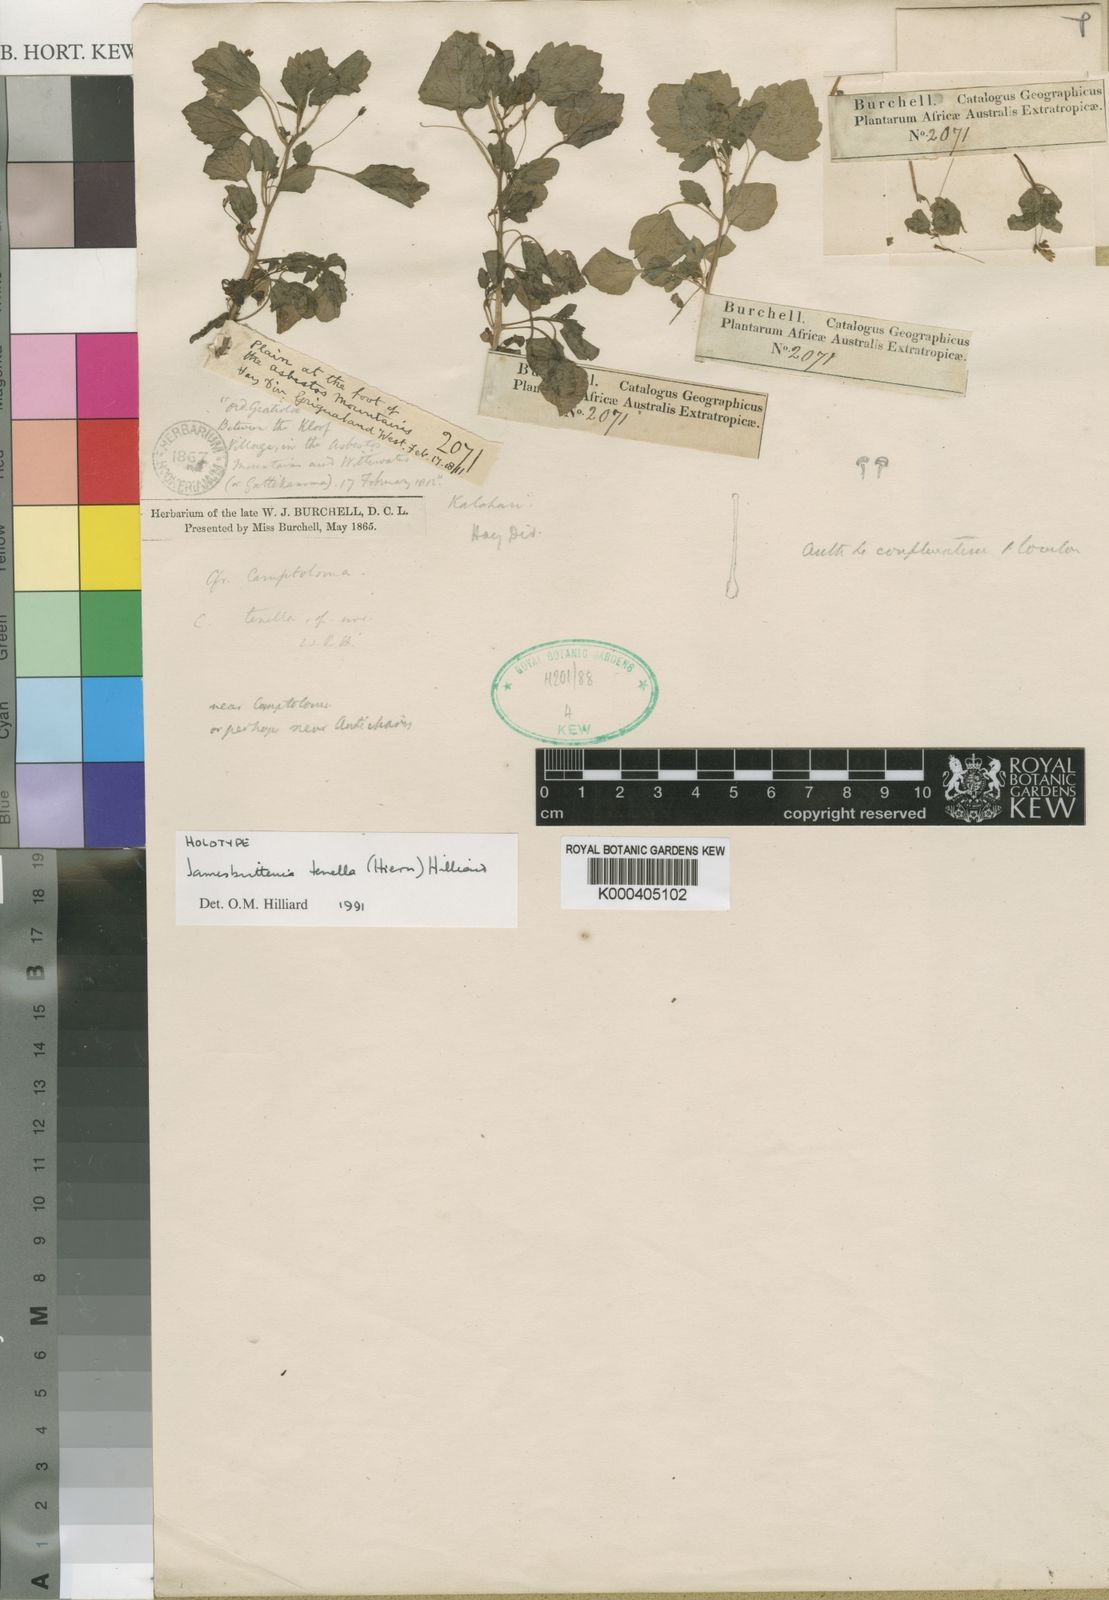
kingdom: Plantae
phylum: Tracheophyta
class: Magnoliopsida
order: Lamiales
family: Scrophulariaceae
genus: Jamesbrittenia
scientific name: Jamesbrittenia tenella
